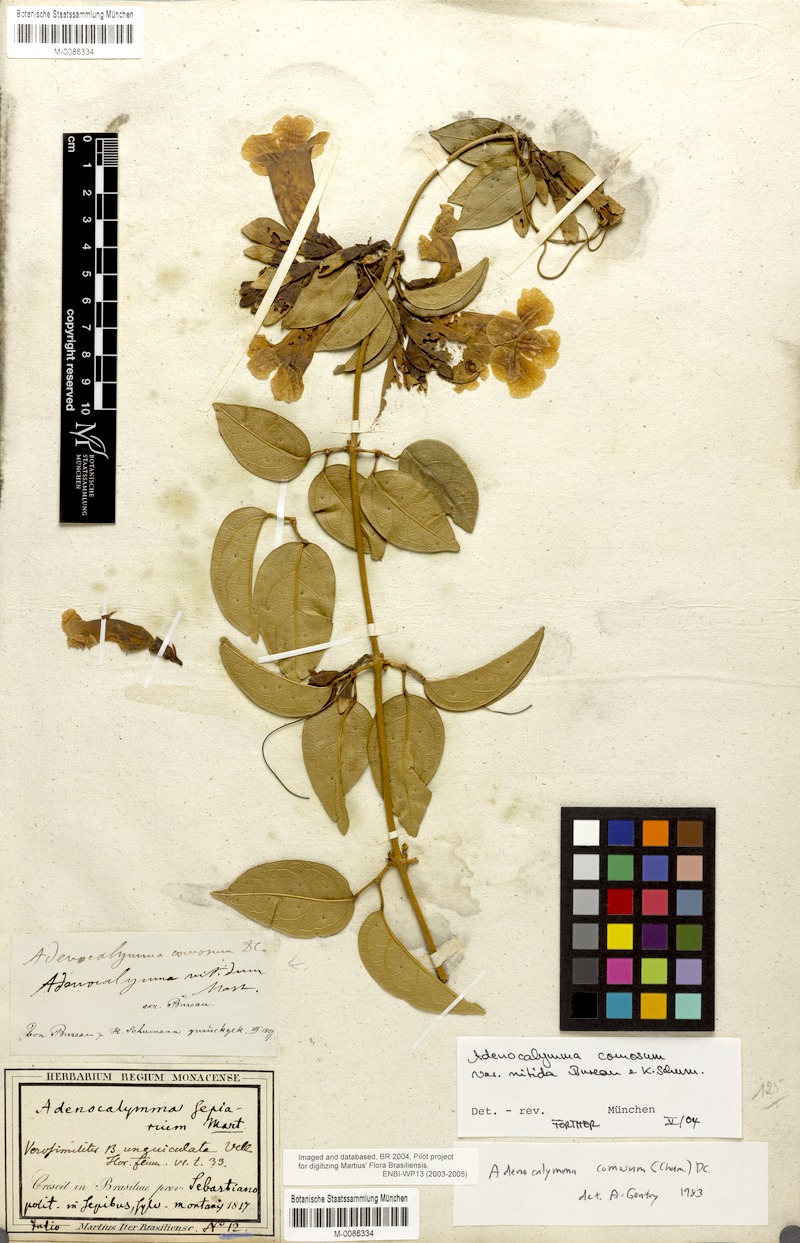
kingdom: Plantae
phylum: Tracheophyta
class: Magnoliopsida
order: Lamiales
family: Bignoniaceae
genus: Adenocalymma
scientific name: Adenocalymma acutissimum
